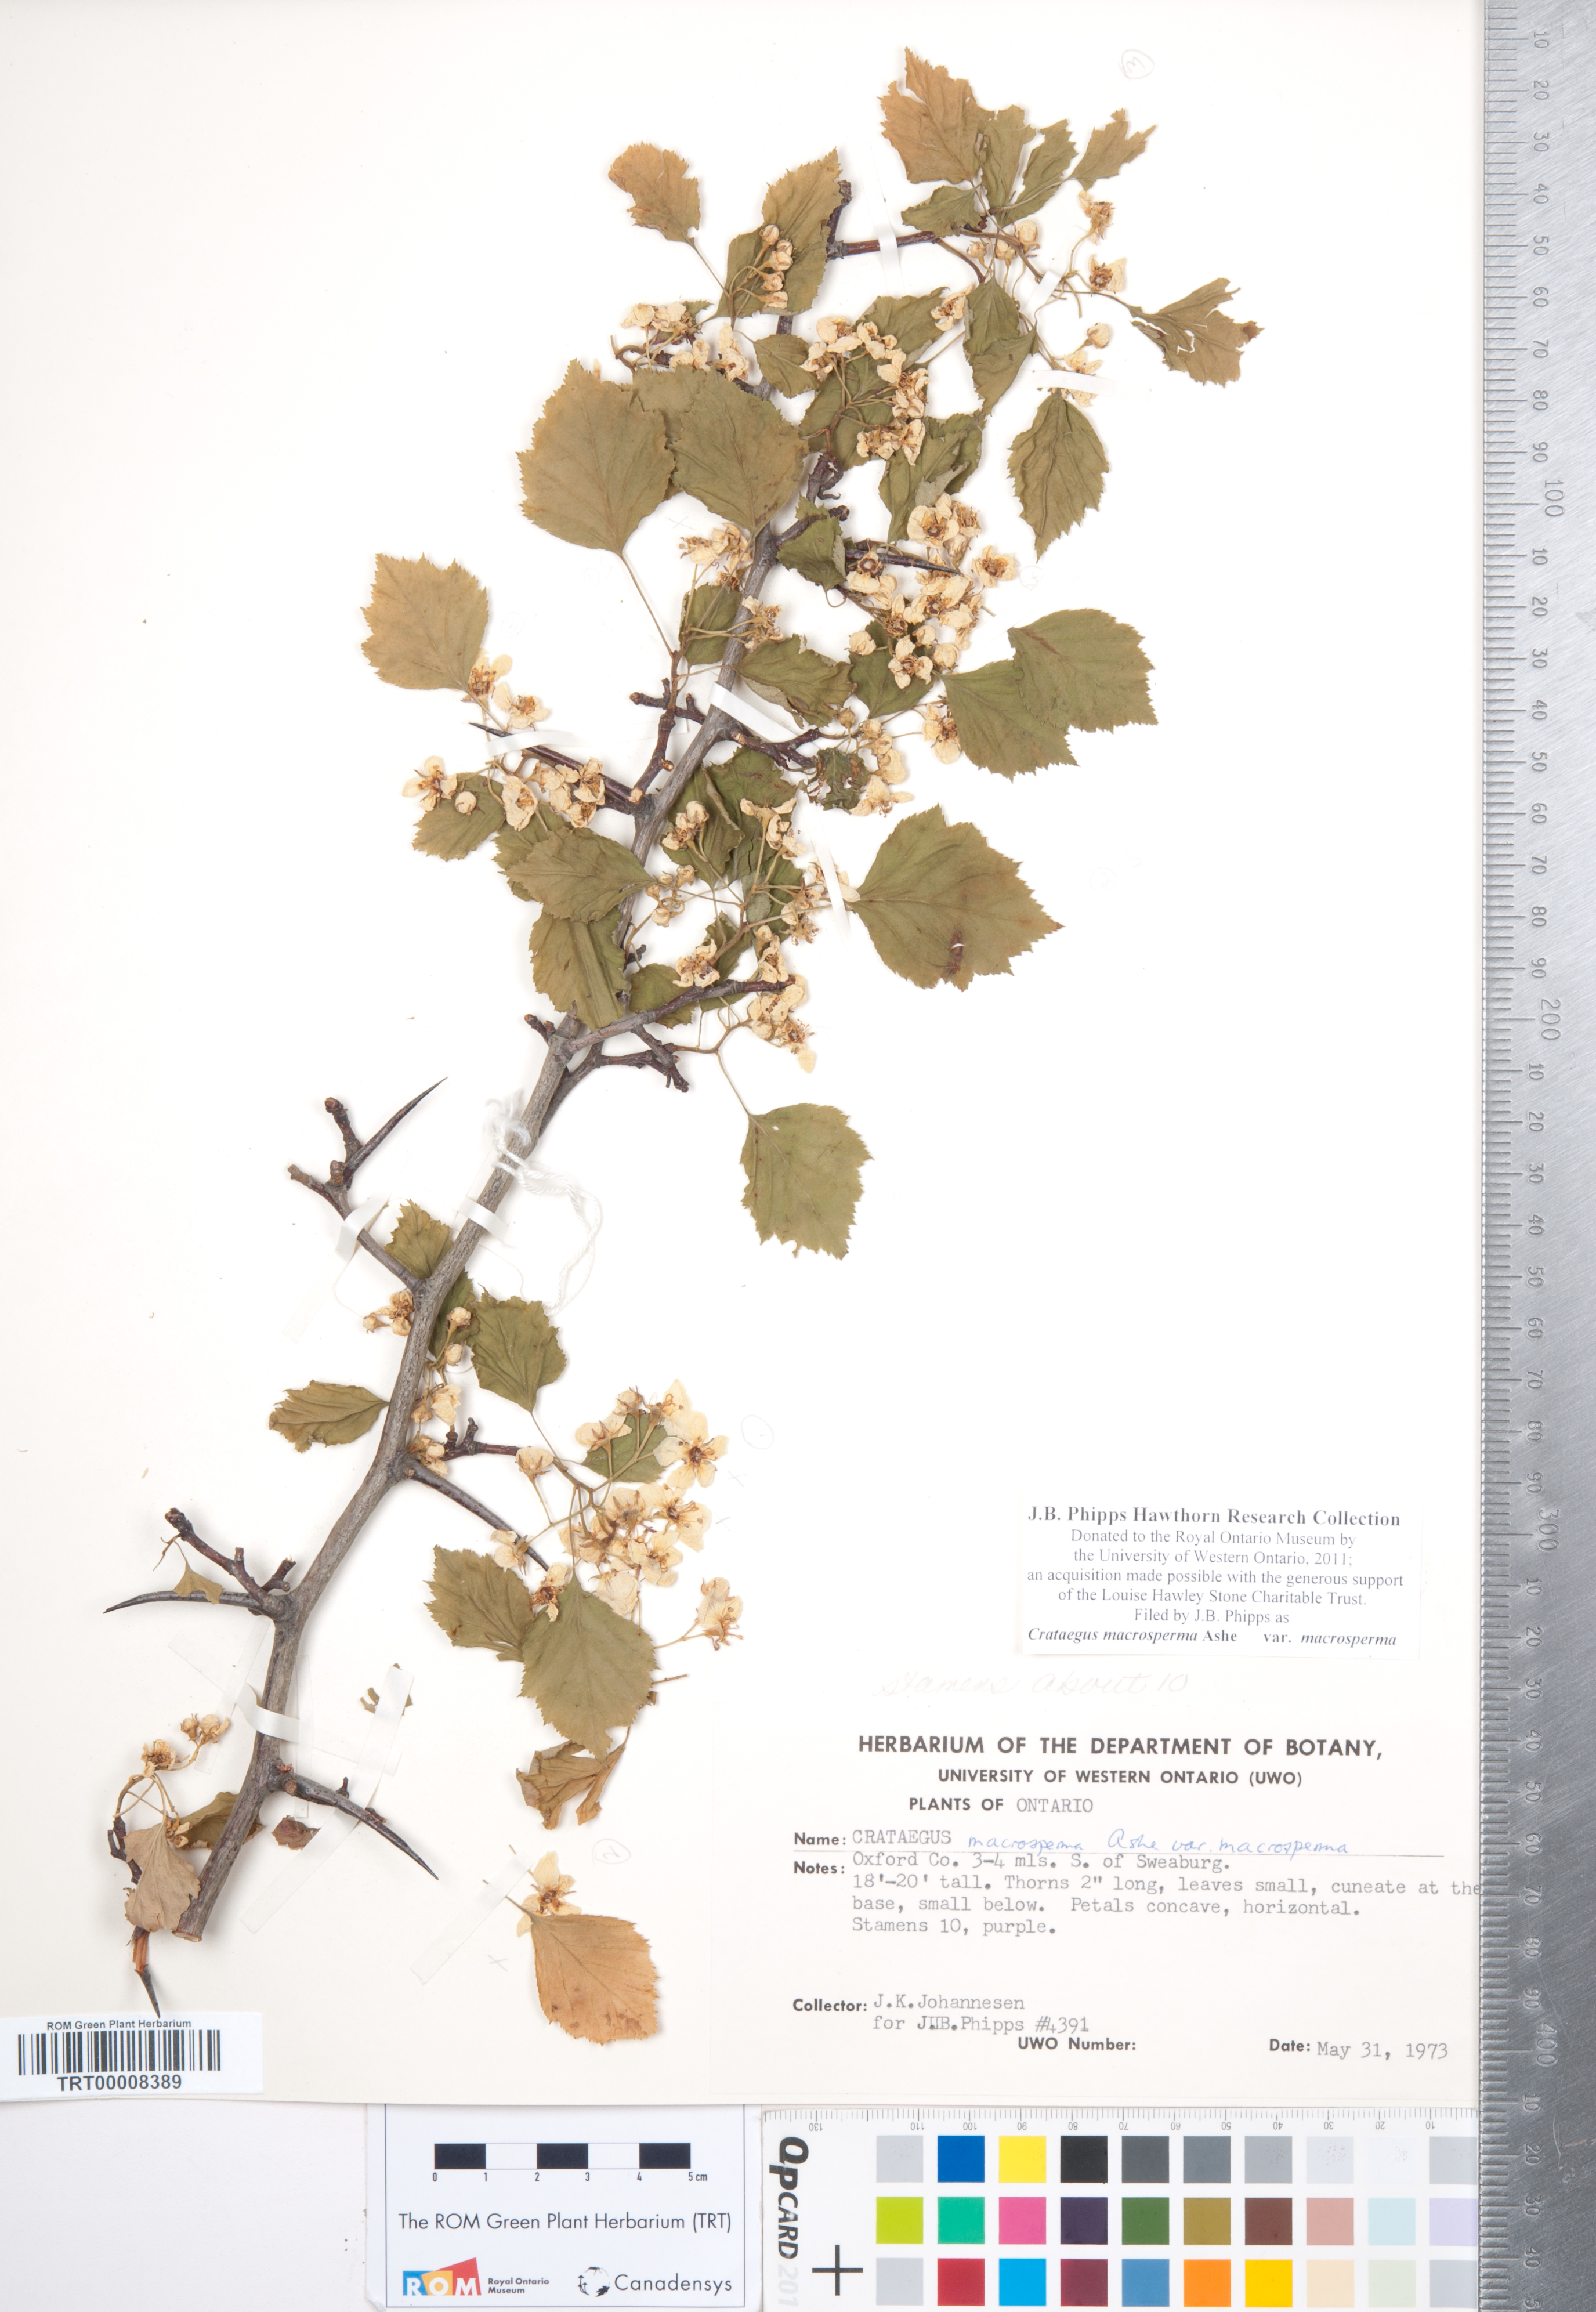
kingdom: Plantae
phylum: Tracheophyta
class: Magnoliopsida
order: Rosales
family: Rosaceae
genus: Crataegus
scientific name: Crataegus macrosperma
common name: Variable hawthorn
